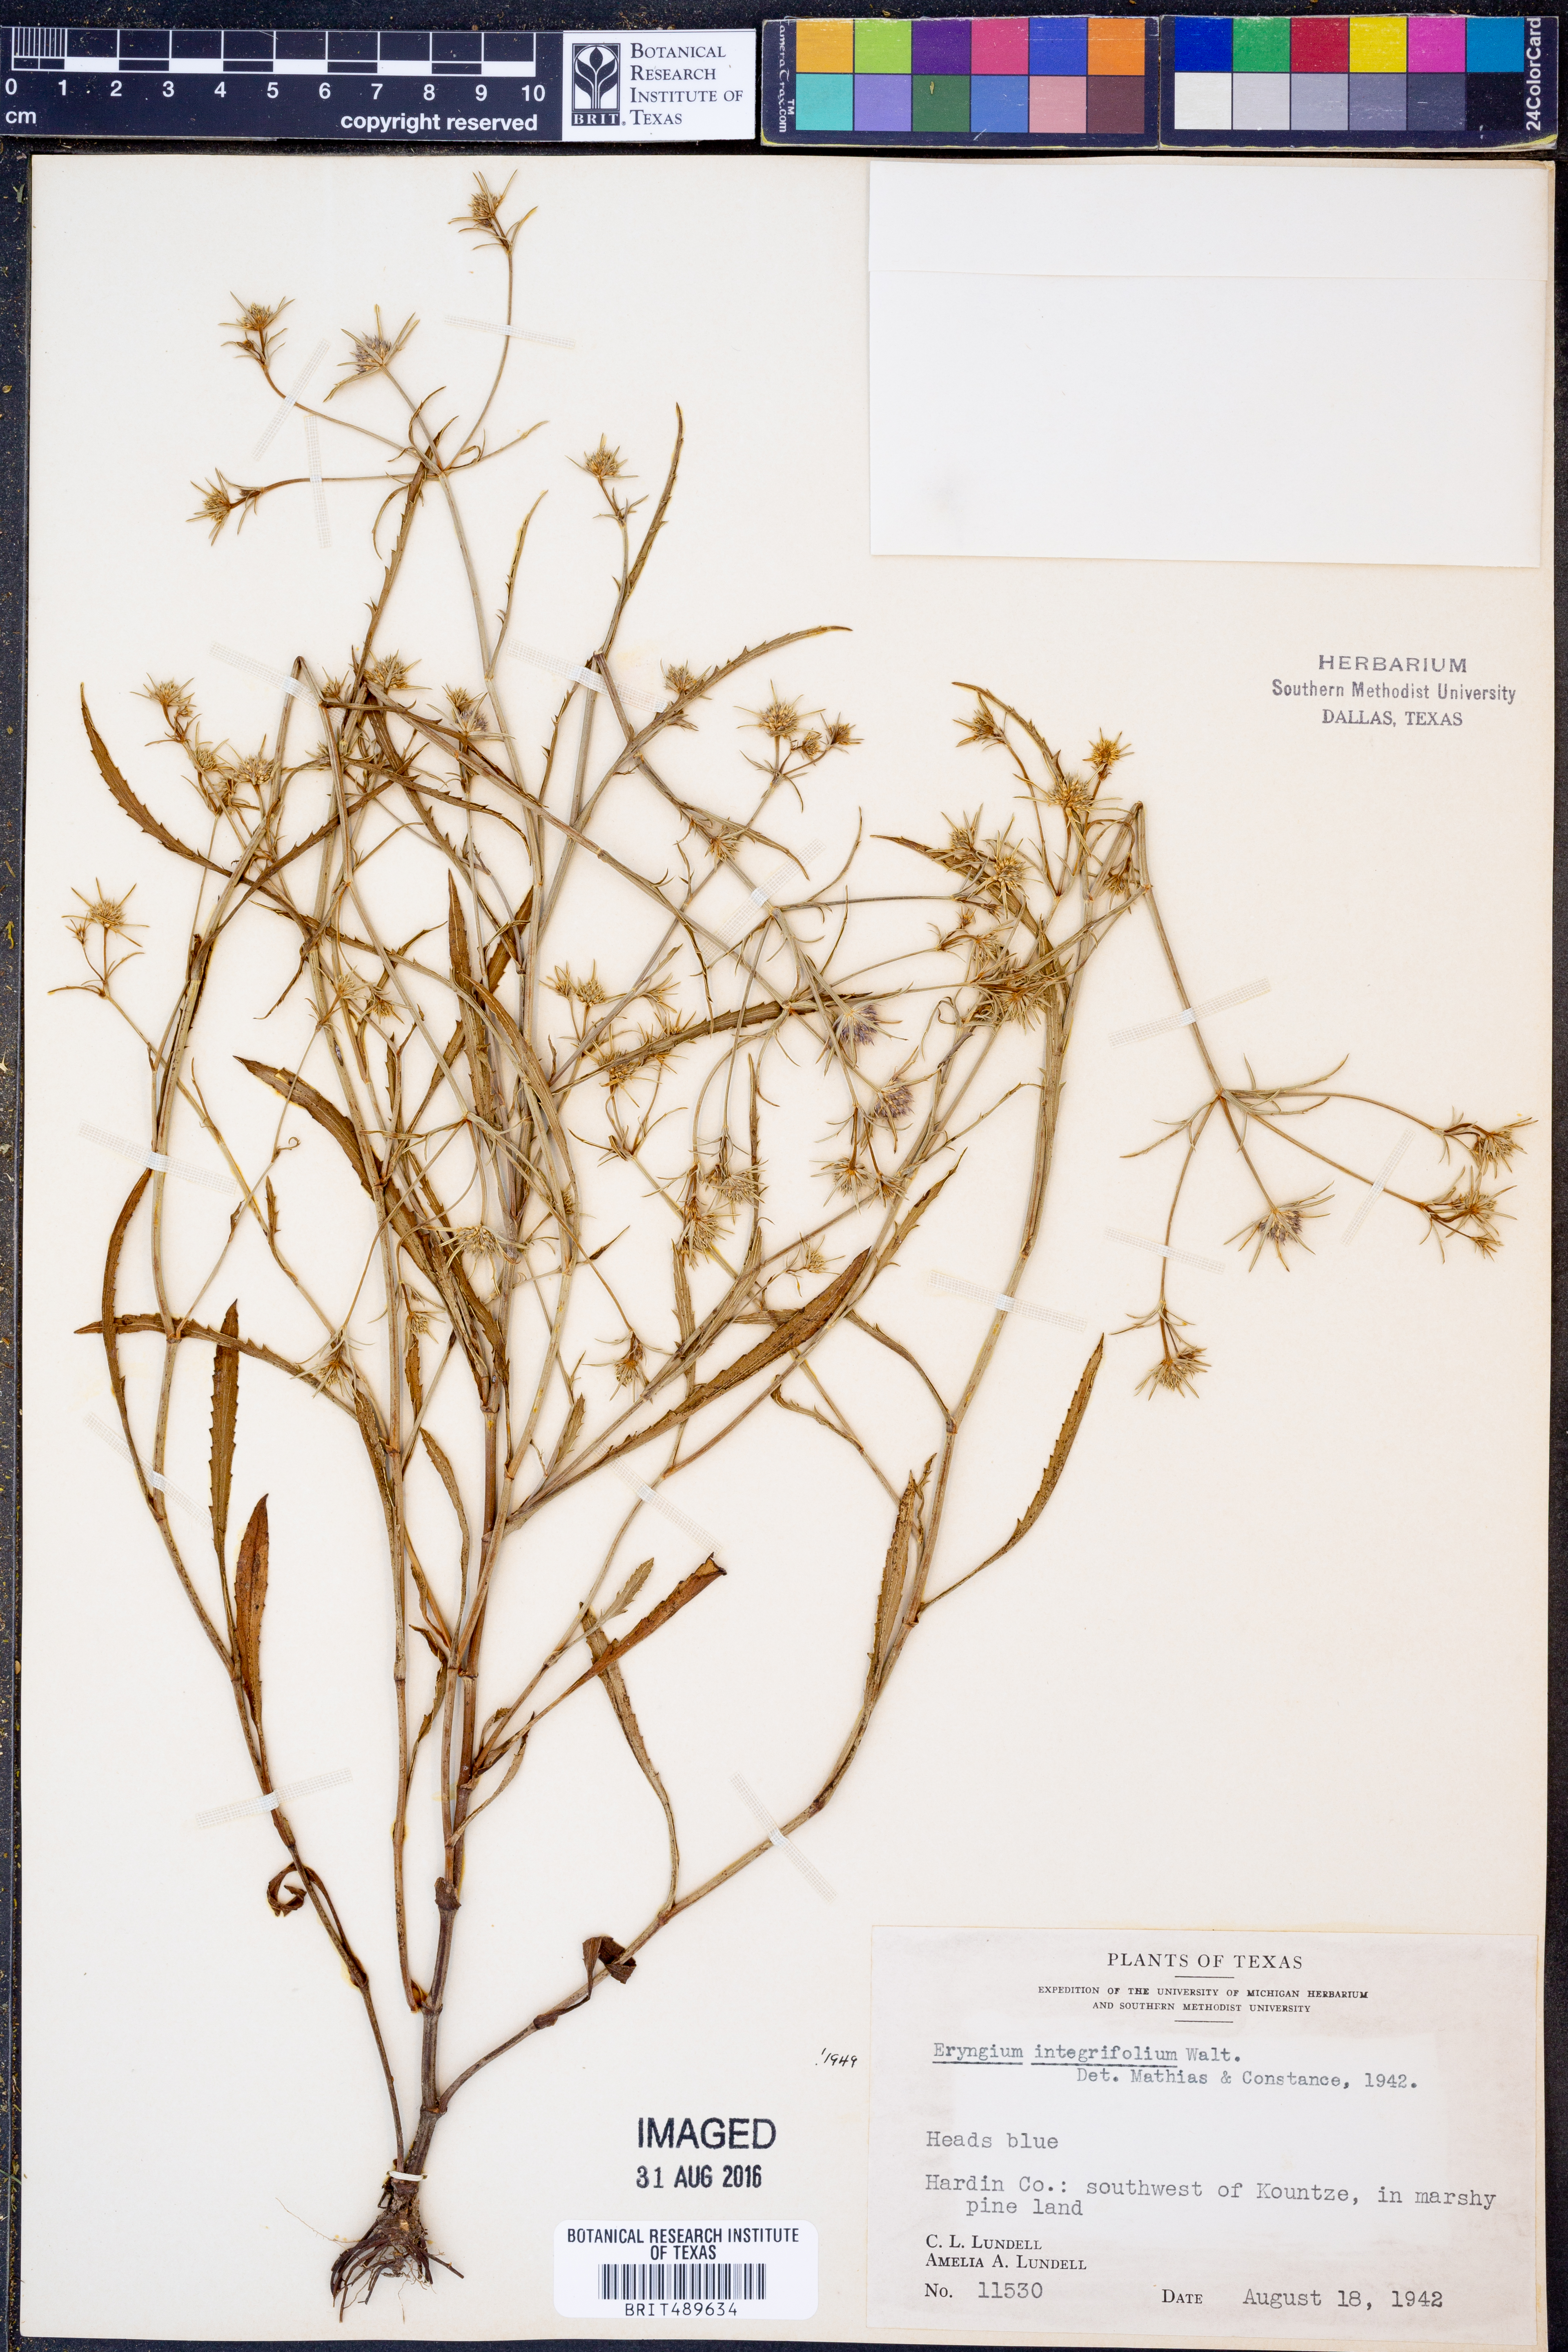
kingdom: Plantae
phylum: Tracheophyta
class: Magnoliopsida
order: Apiales
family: Apiaceae
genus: Eryngium
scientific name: Eryngium integrifolium
